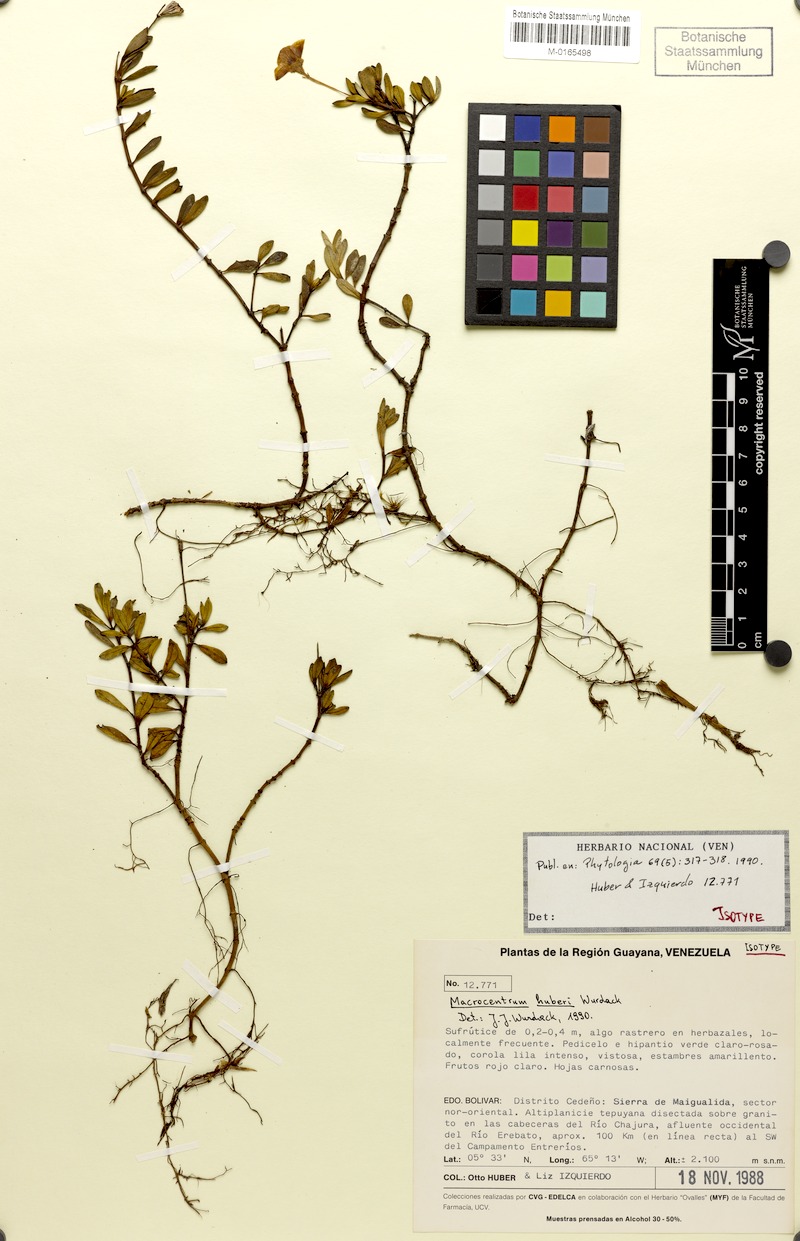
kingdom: Plantae
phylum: Tracheophyta
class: Magnoliopsida
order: Myrtales
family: Melastomataceae
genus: Macrocentrum
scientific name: Macrocentrum huberi
